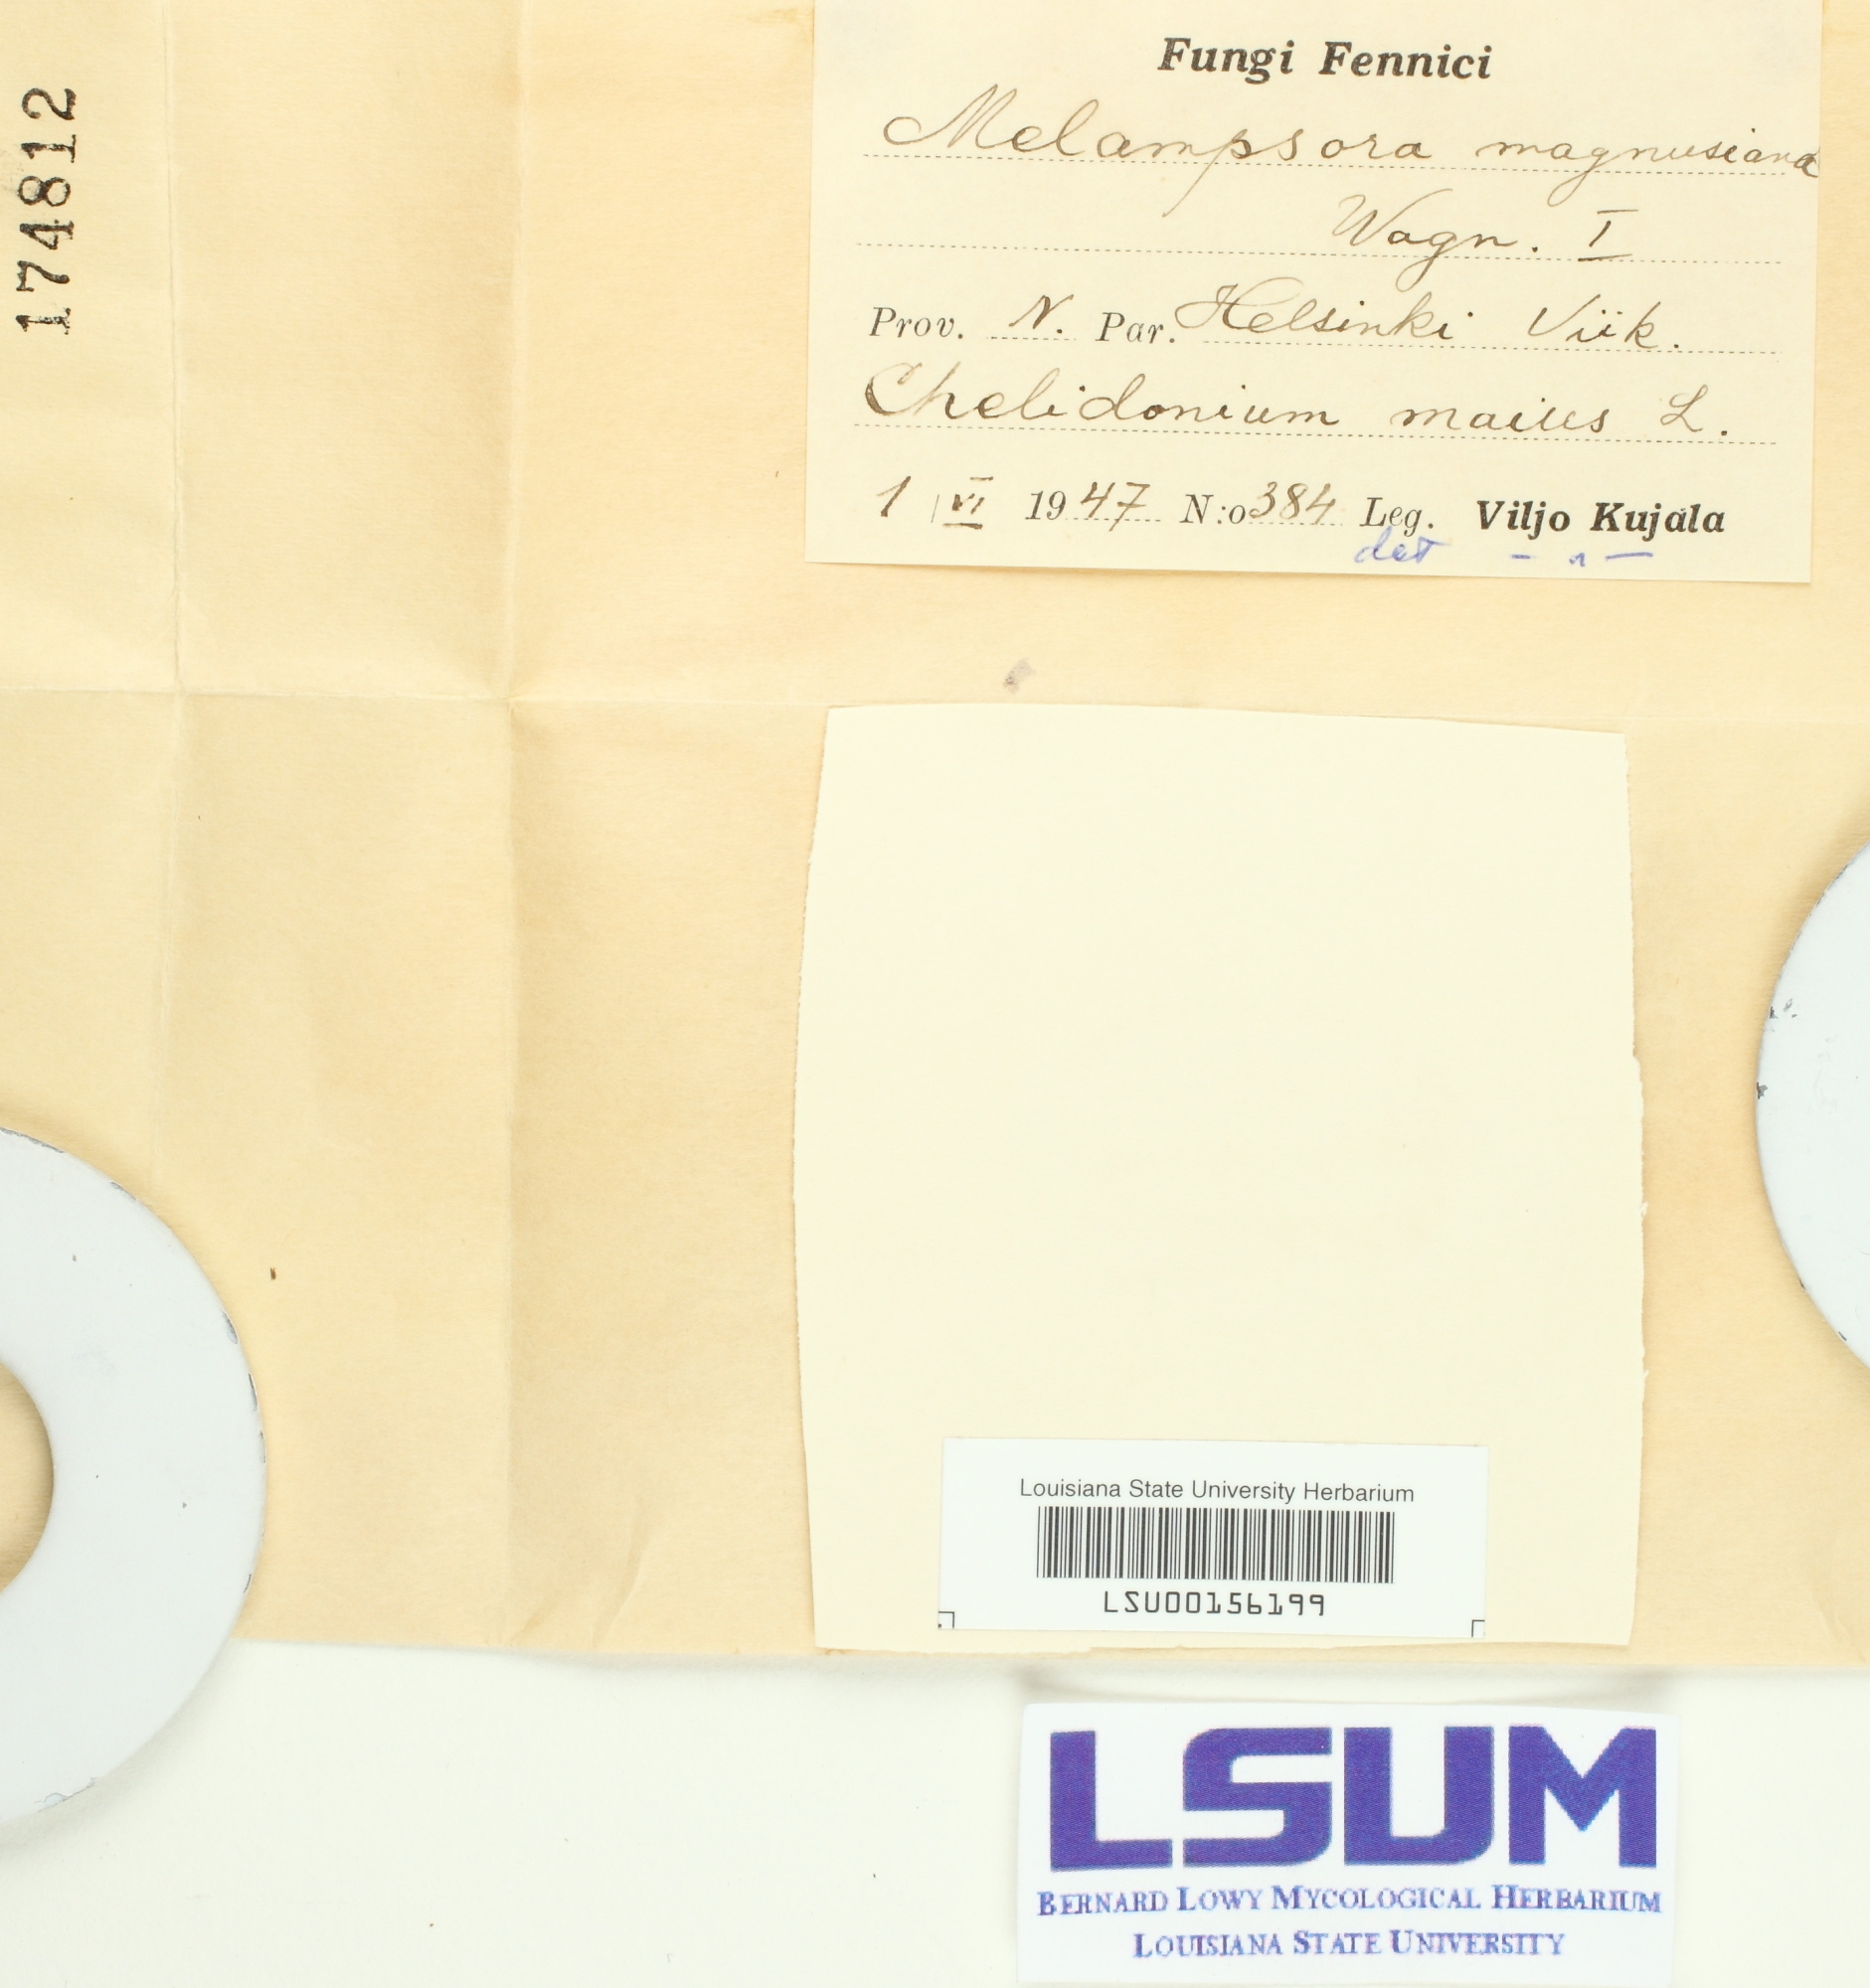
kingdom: Fungi
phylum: Basidiomycota
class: Pucciniomycetes
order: Pucciniales
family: Melampsoraceae
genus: Melampsora
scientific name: Melampsora magnusiana
